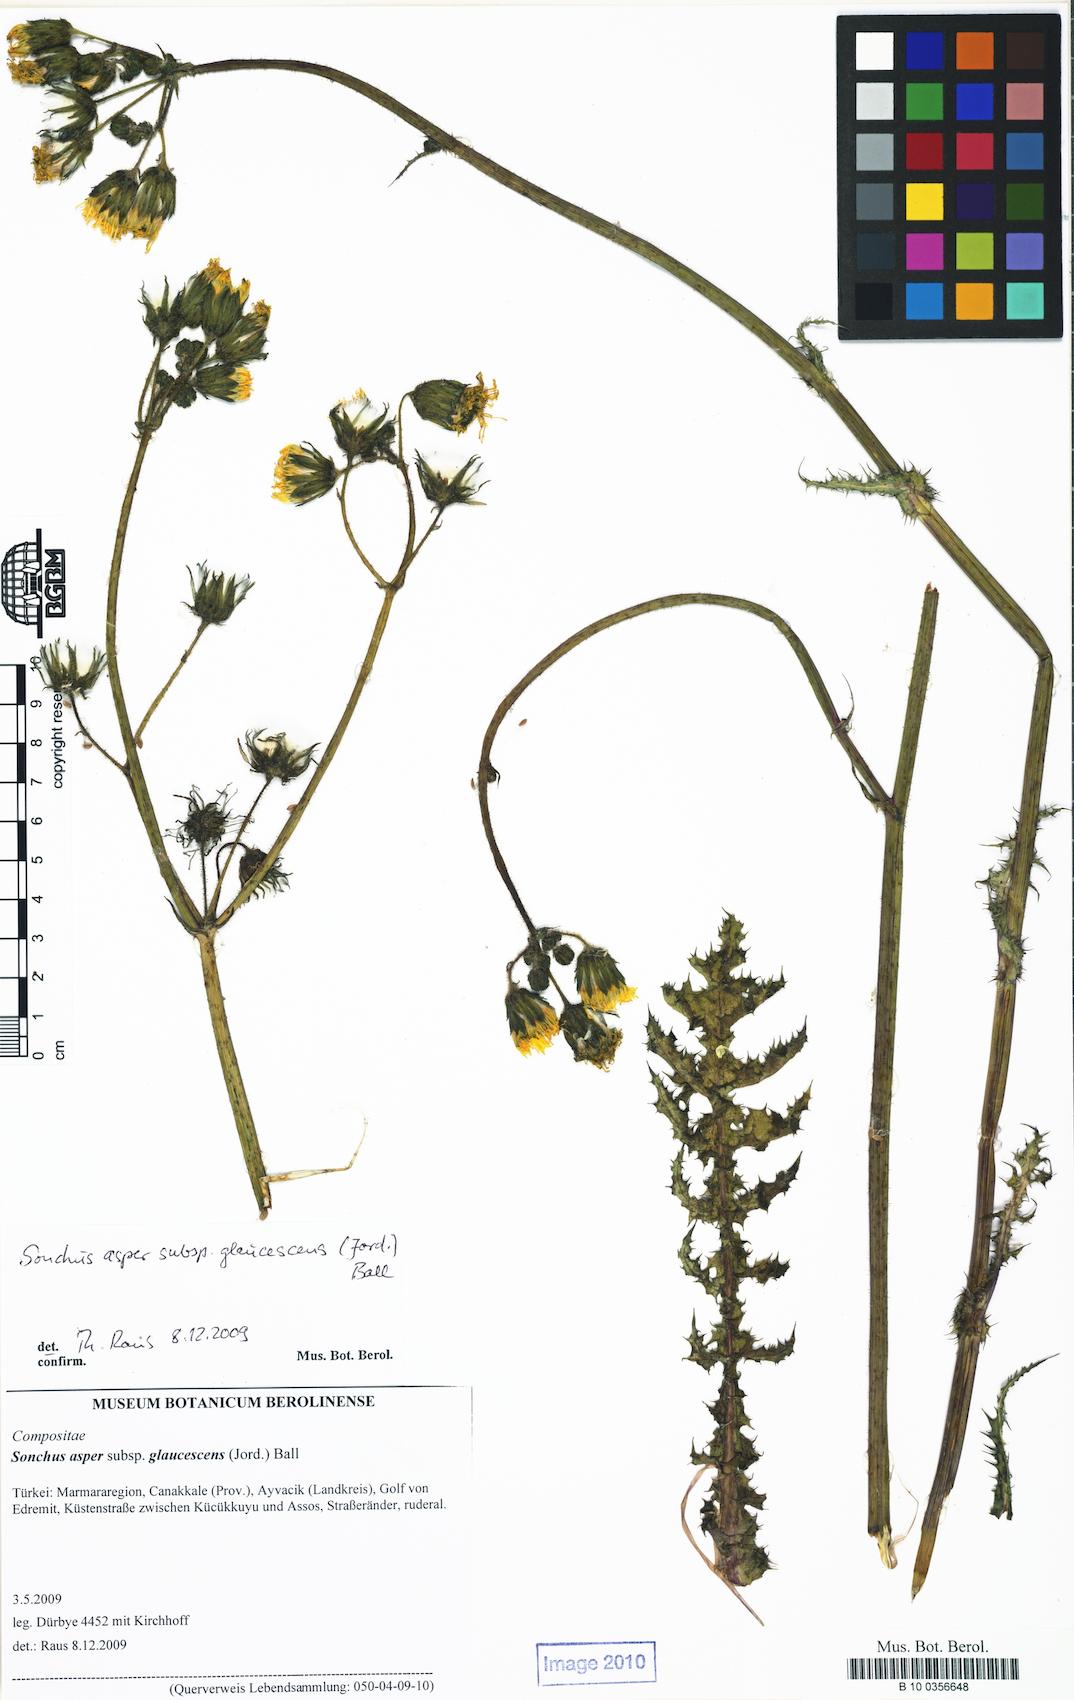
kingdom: Plantae
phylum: Tracheophyta
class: Magnoliopsida
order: Asterales
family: Asteraceae
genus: Sonchus
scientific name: Sonchus asper
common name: Prickly sow-thistle
